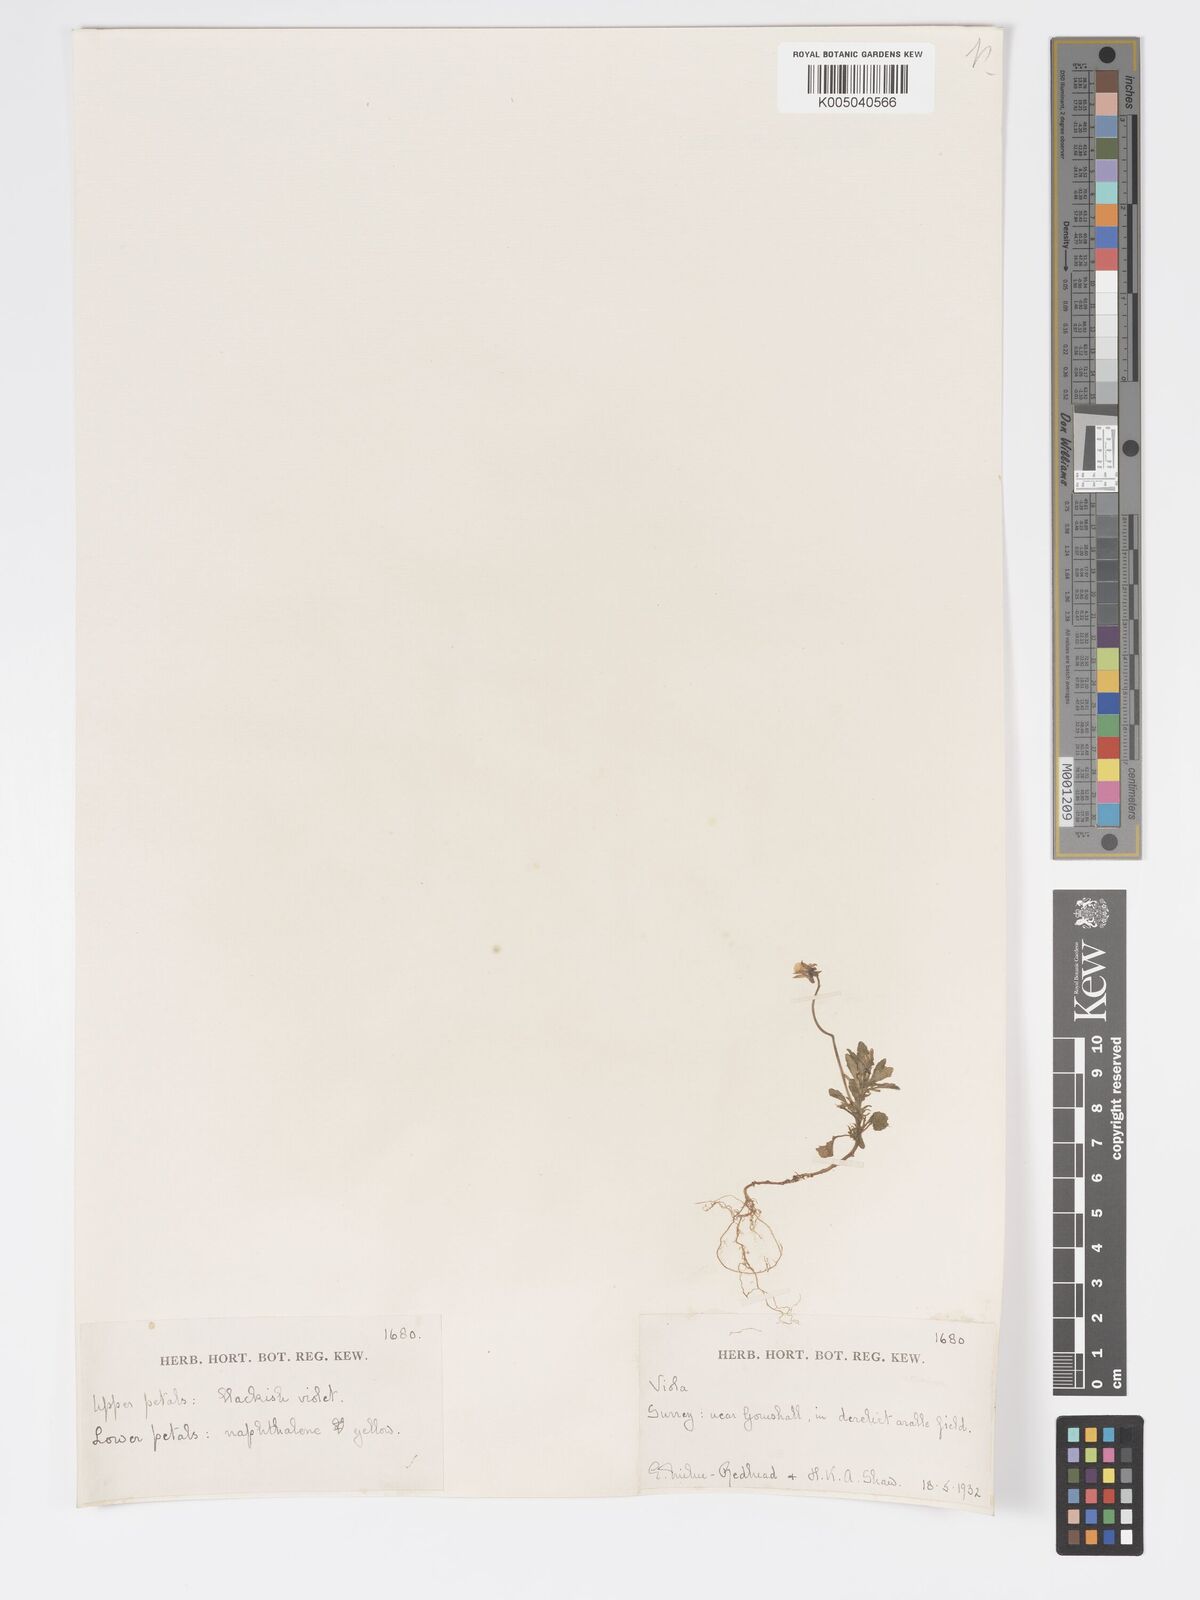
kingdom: Plantae
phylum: Tracheophyta
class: Magnoliopsida
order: Malpighiales
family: Violaceae
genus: Viola
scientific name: Viola
